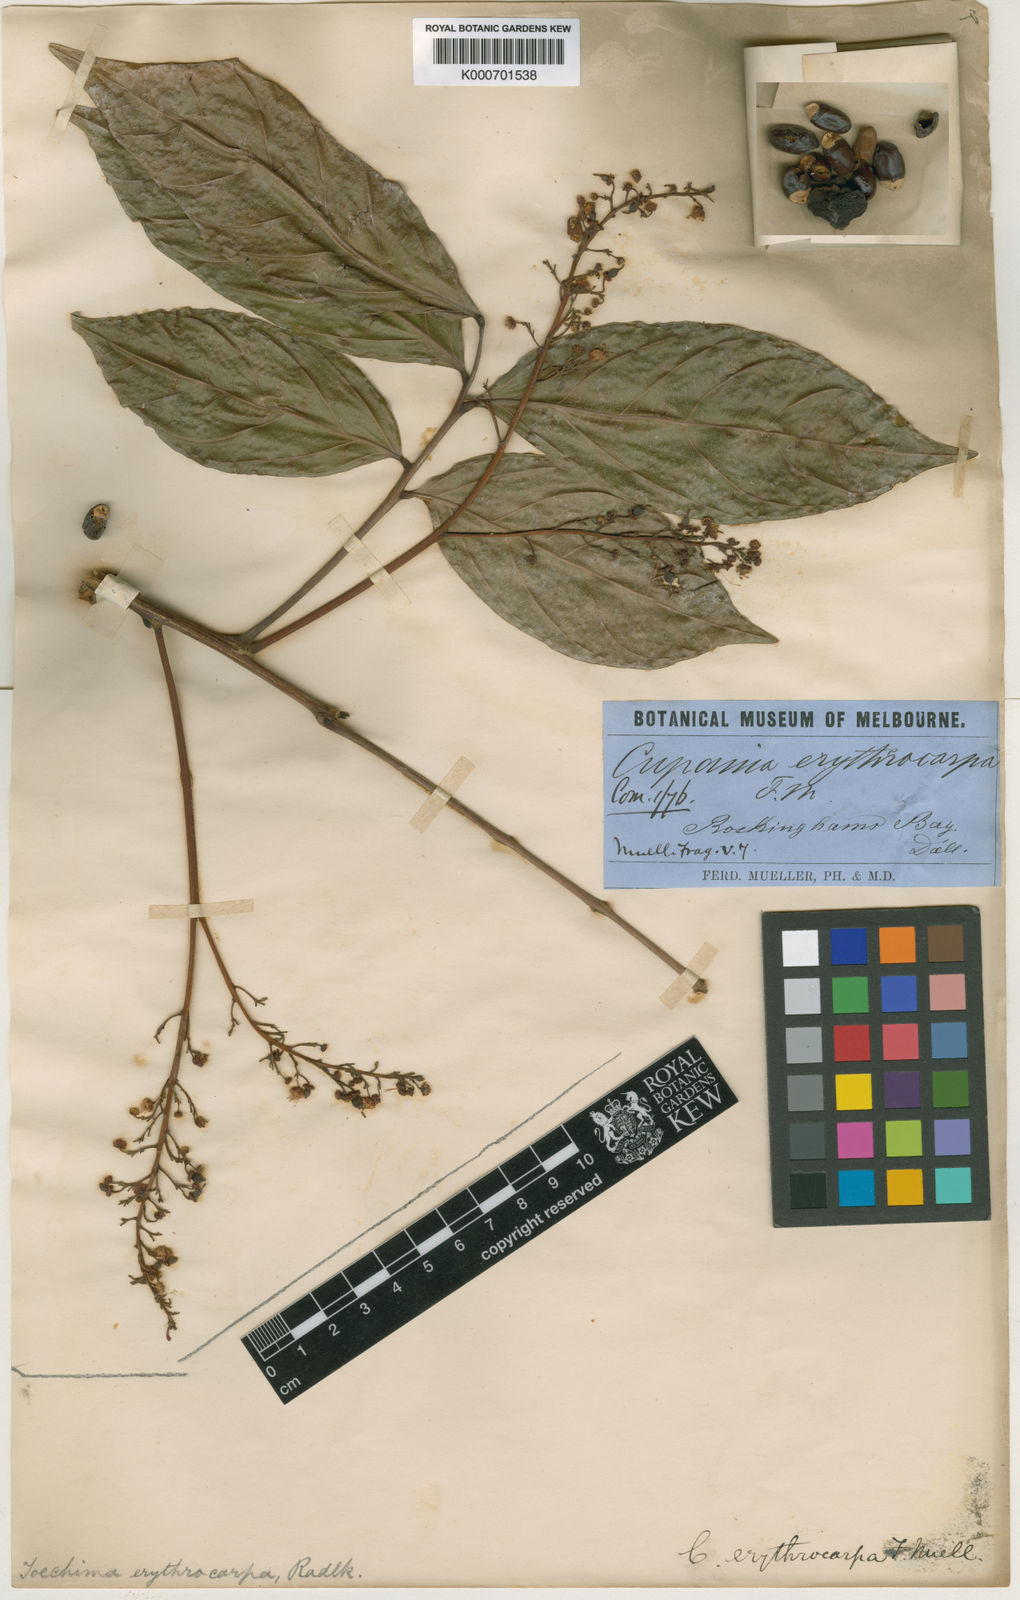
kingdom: Plantae
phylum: Tracheophyta
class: Magnoliopsida
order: Sapindales
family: Sapindaceae
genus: Toechima
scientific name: Toechima erythrocarpum
